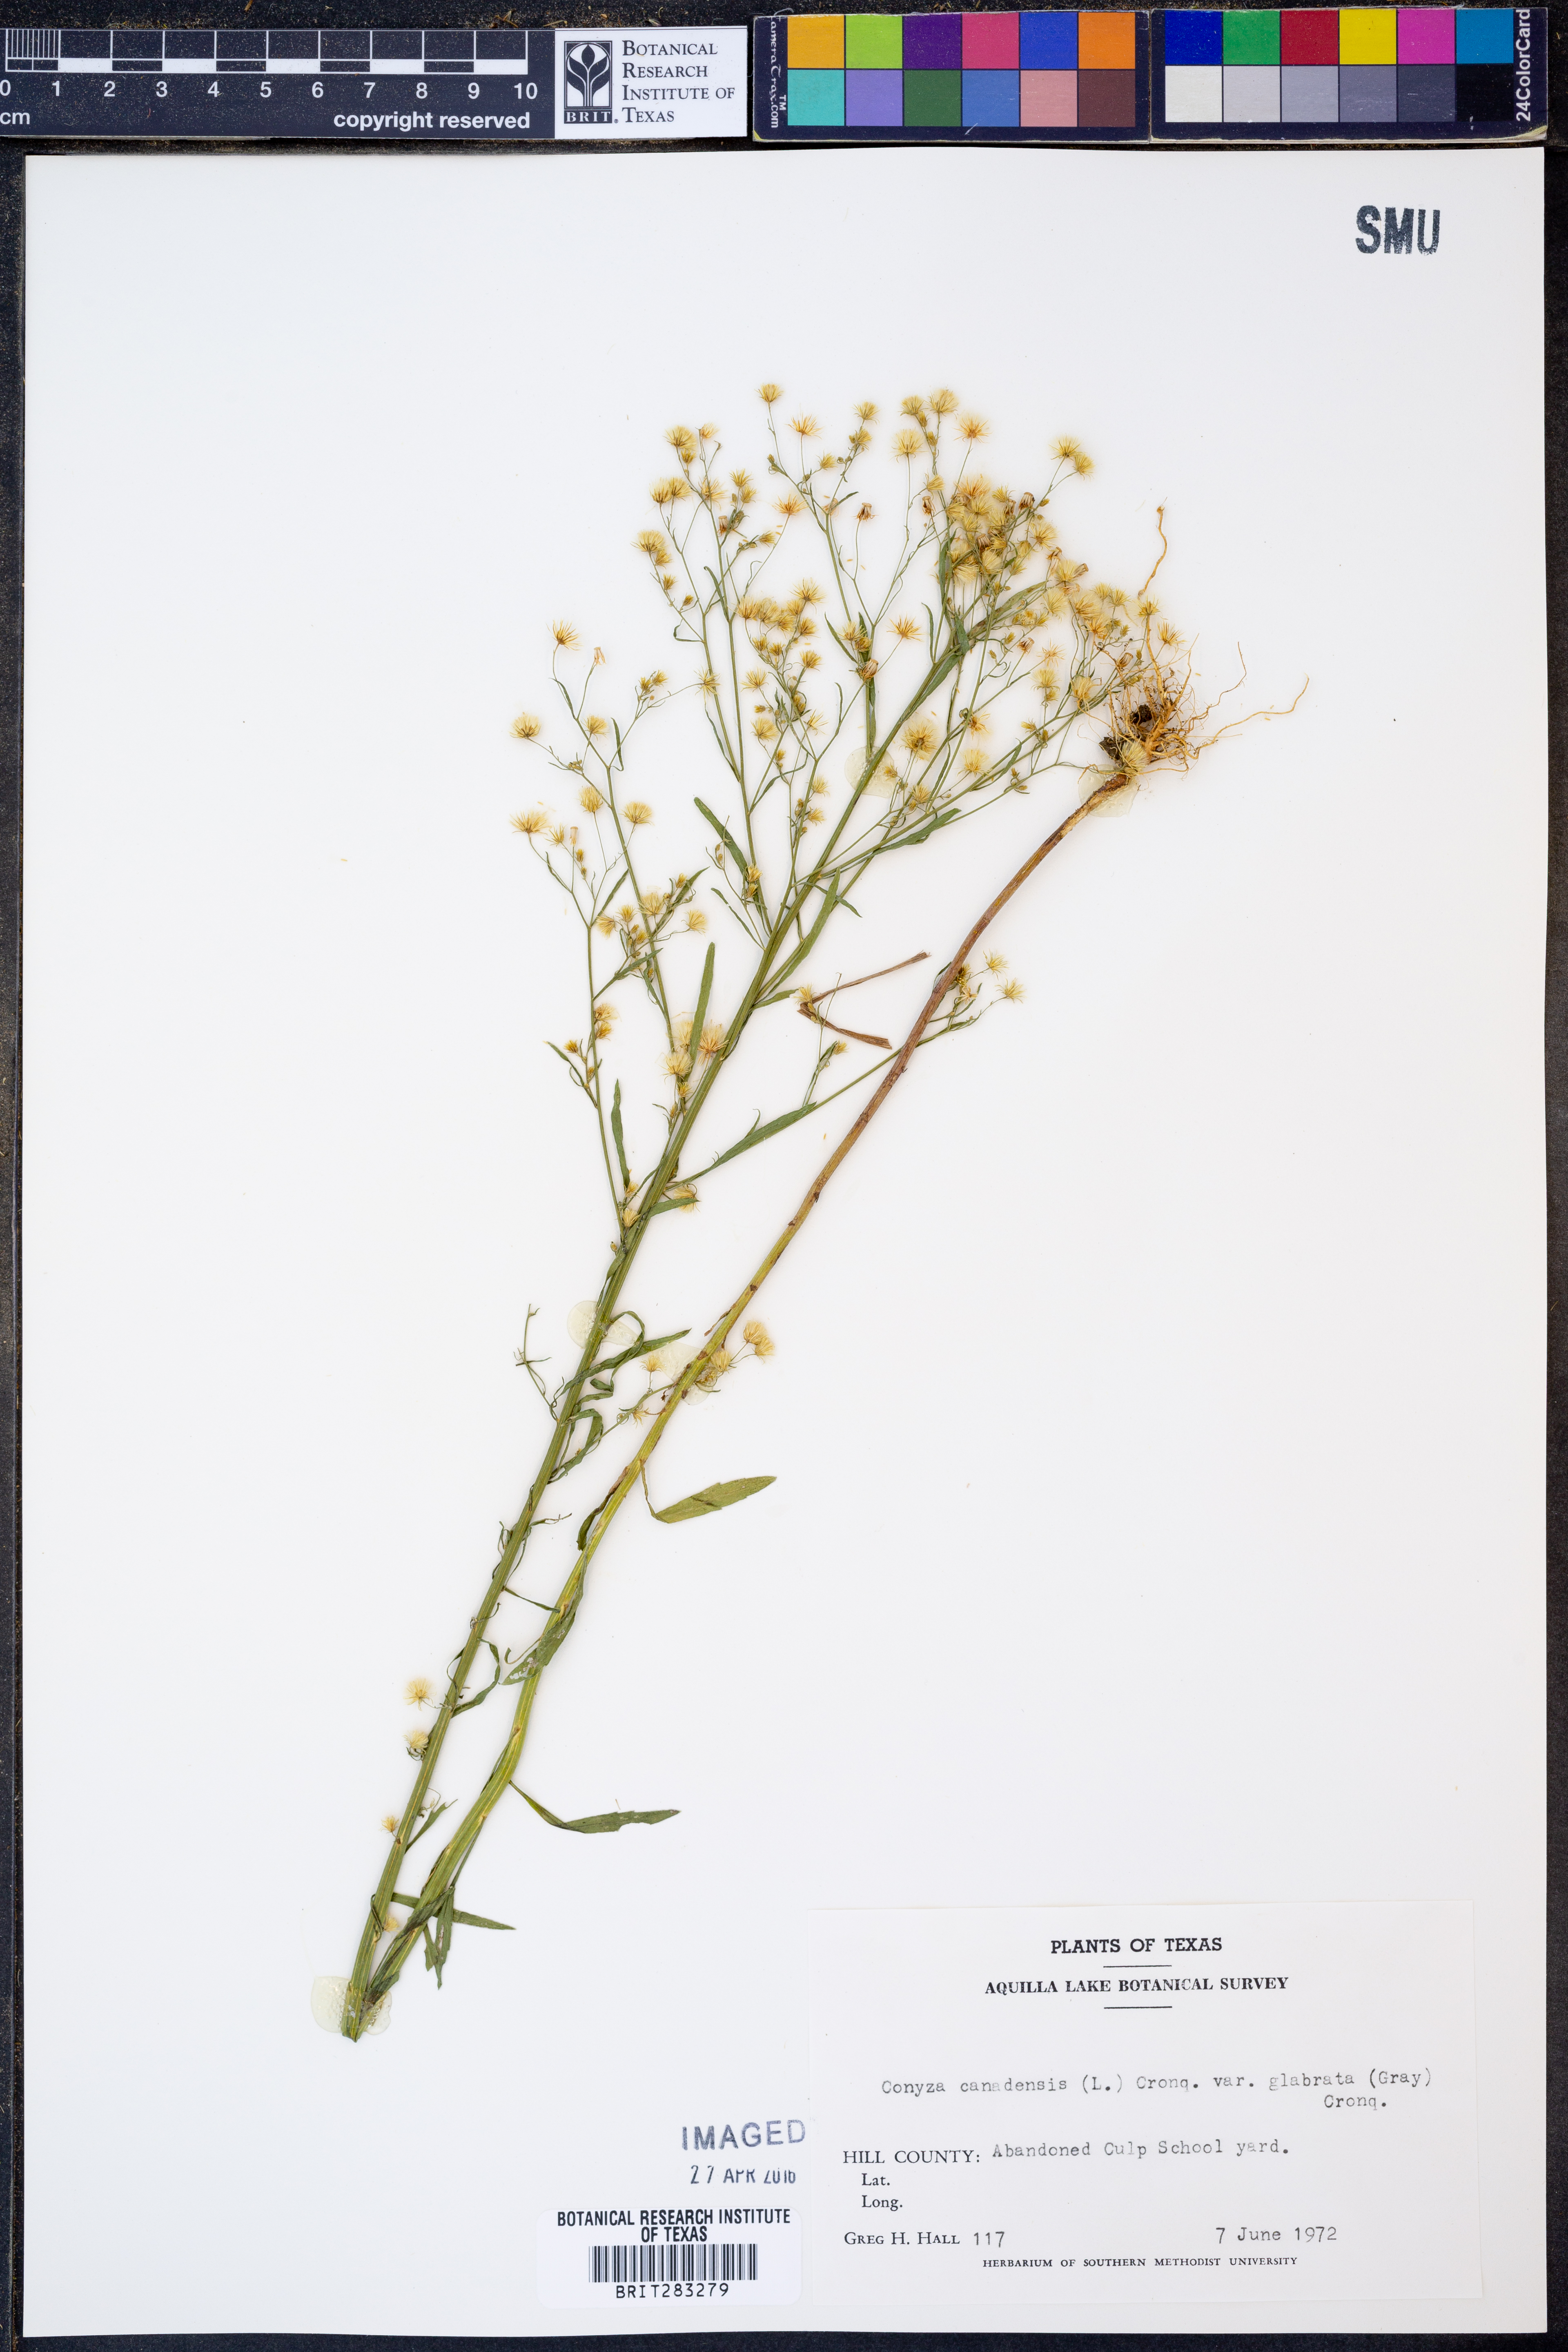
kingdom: Plantae
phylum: Tracheophyta
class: Magnoliopsida
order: Asterales
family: Asteraceae
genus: Erigeron
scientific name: Erigeron canadensis
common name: Canadian fleabane
